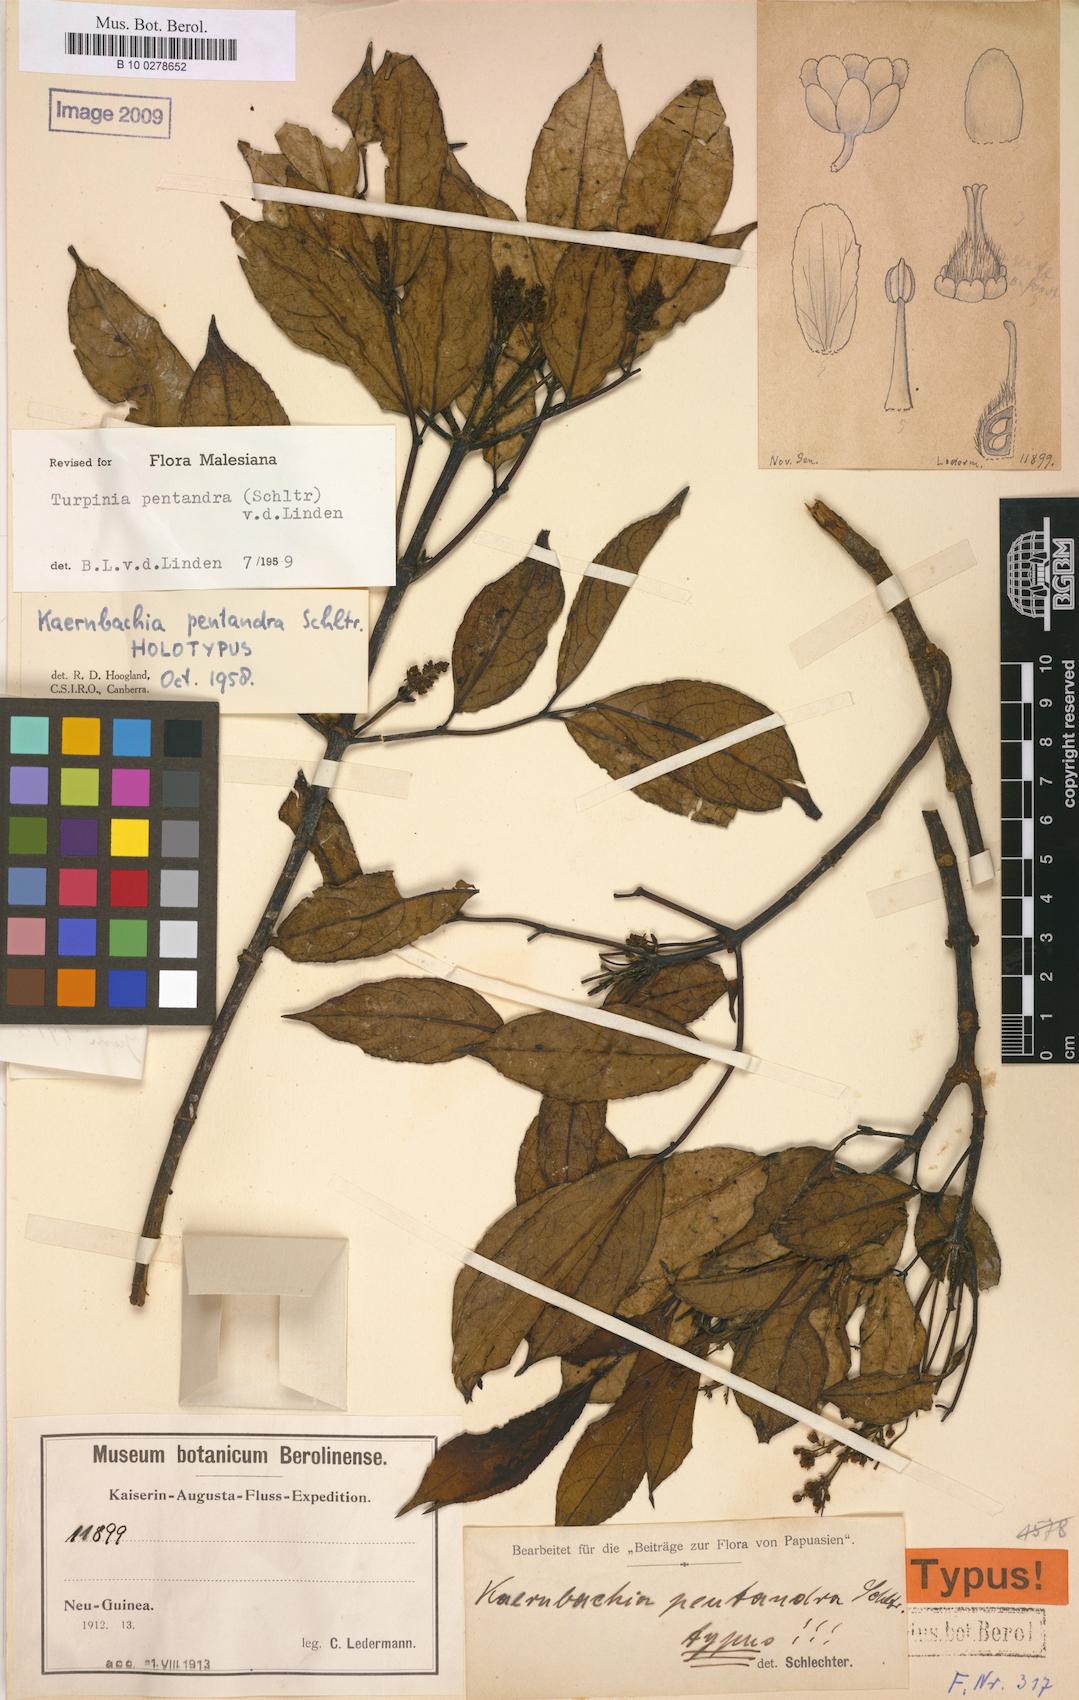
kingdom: Plantae
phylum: Tracheophyta
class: Magnoliopsida
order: Crossosomatales
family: Staphyleaceae
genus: Turpinia
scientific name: Turpinia pentandra
